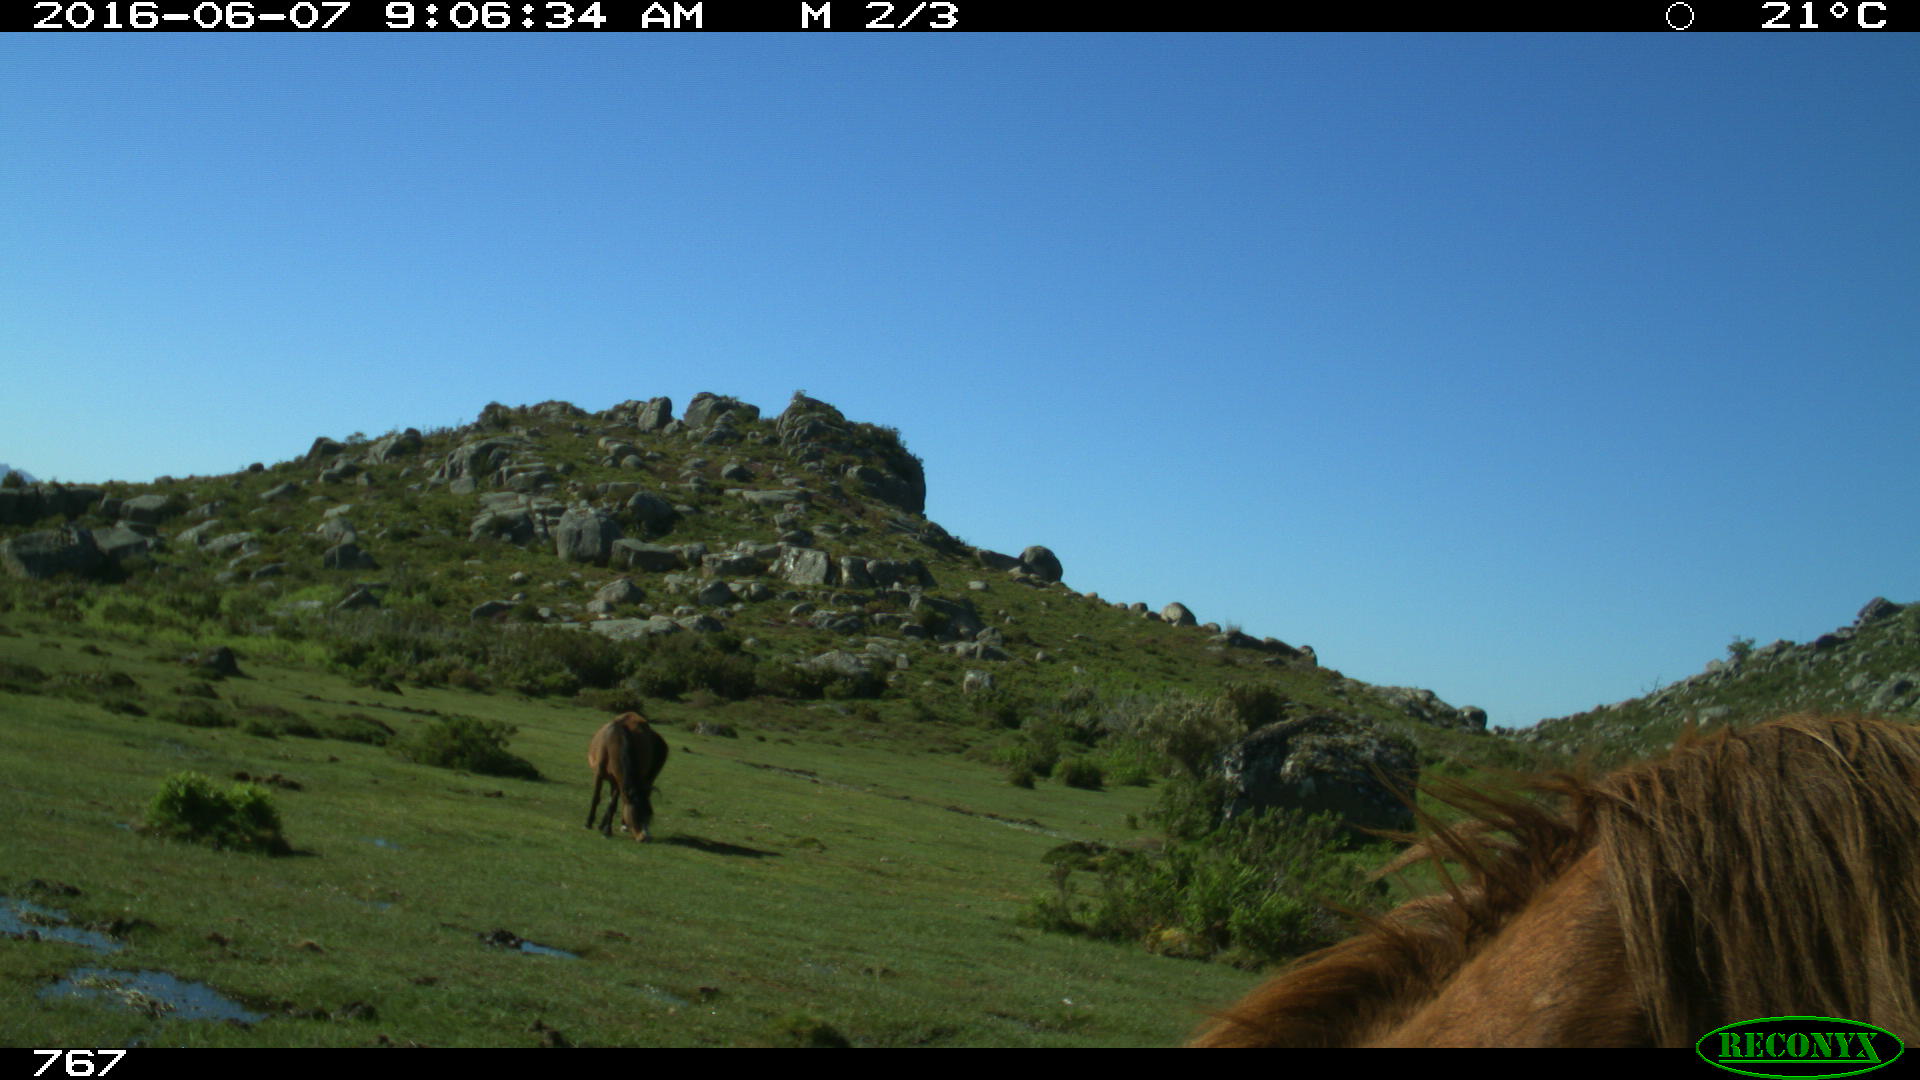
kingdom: Animalia
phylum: Chordata
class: Mammalia
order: Perissodactyla
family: Equidae
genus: Equus
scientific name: Equus caballus
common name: Horse
